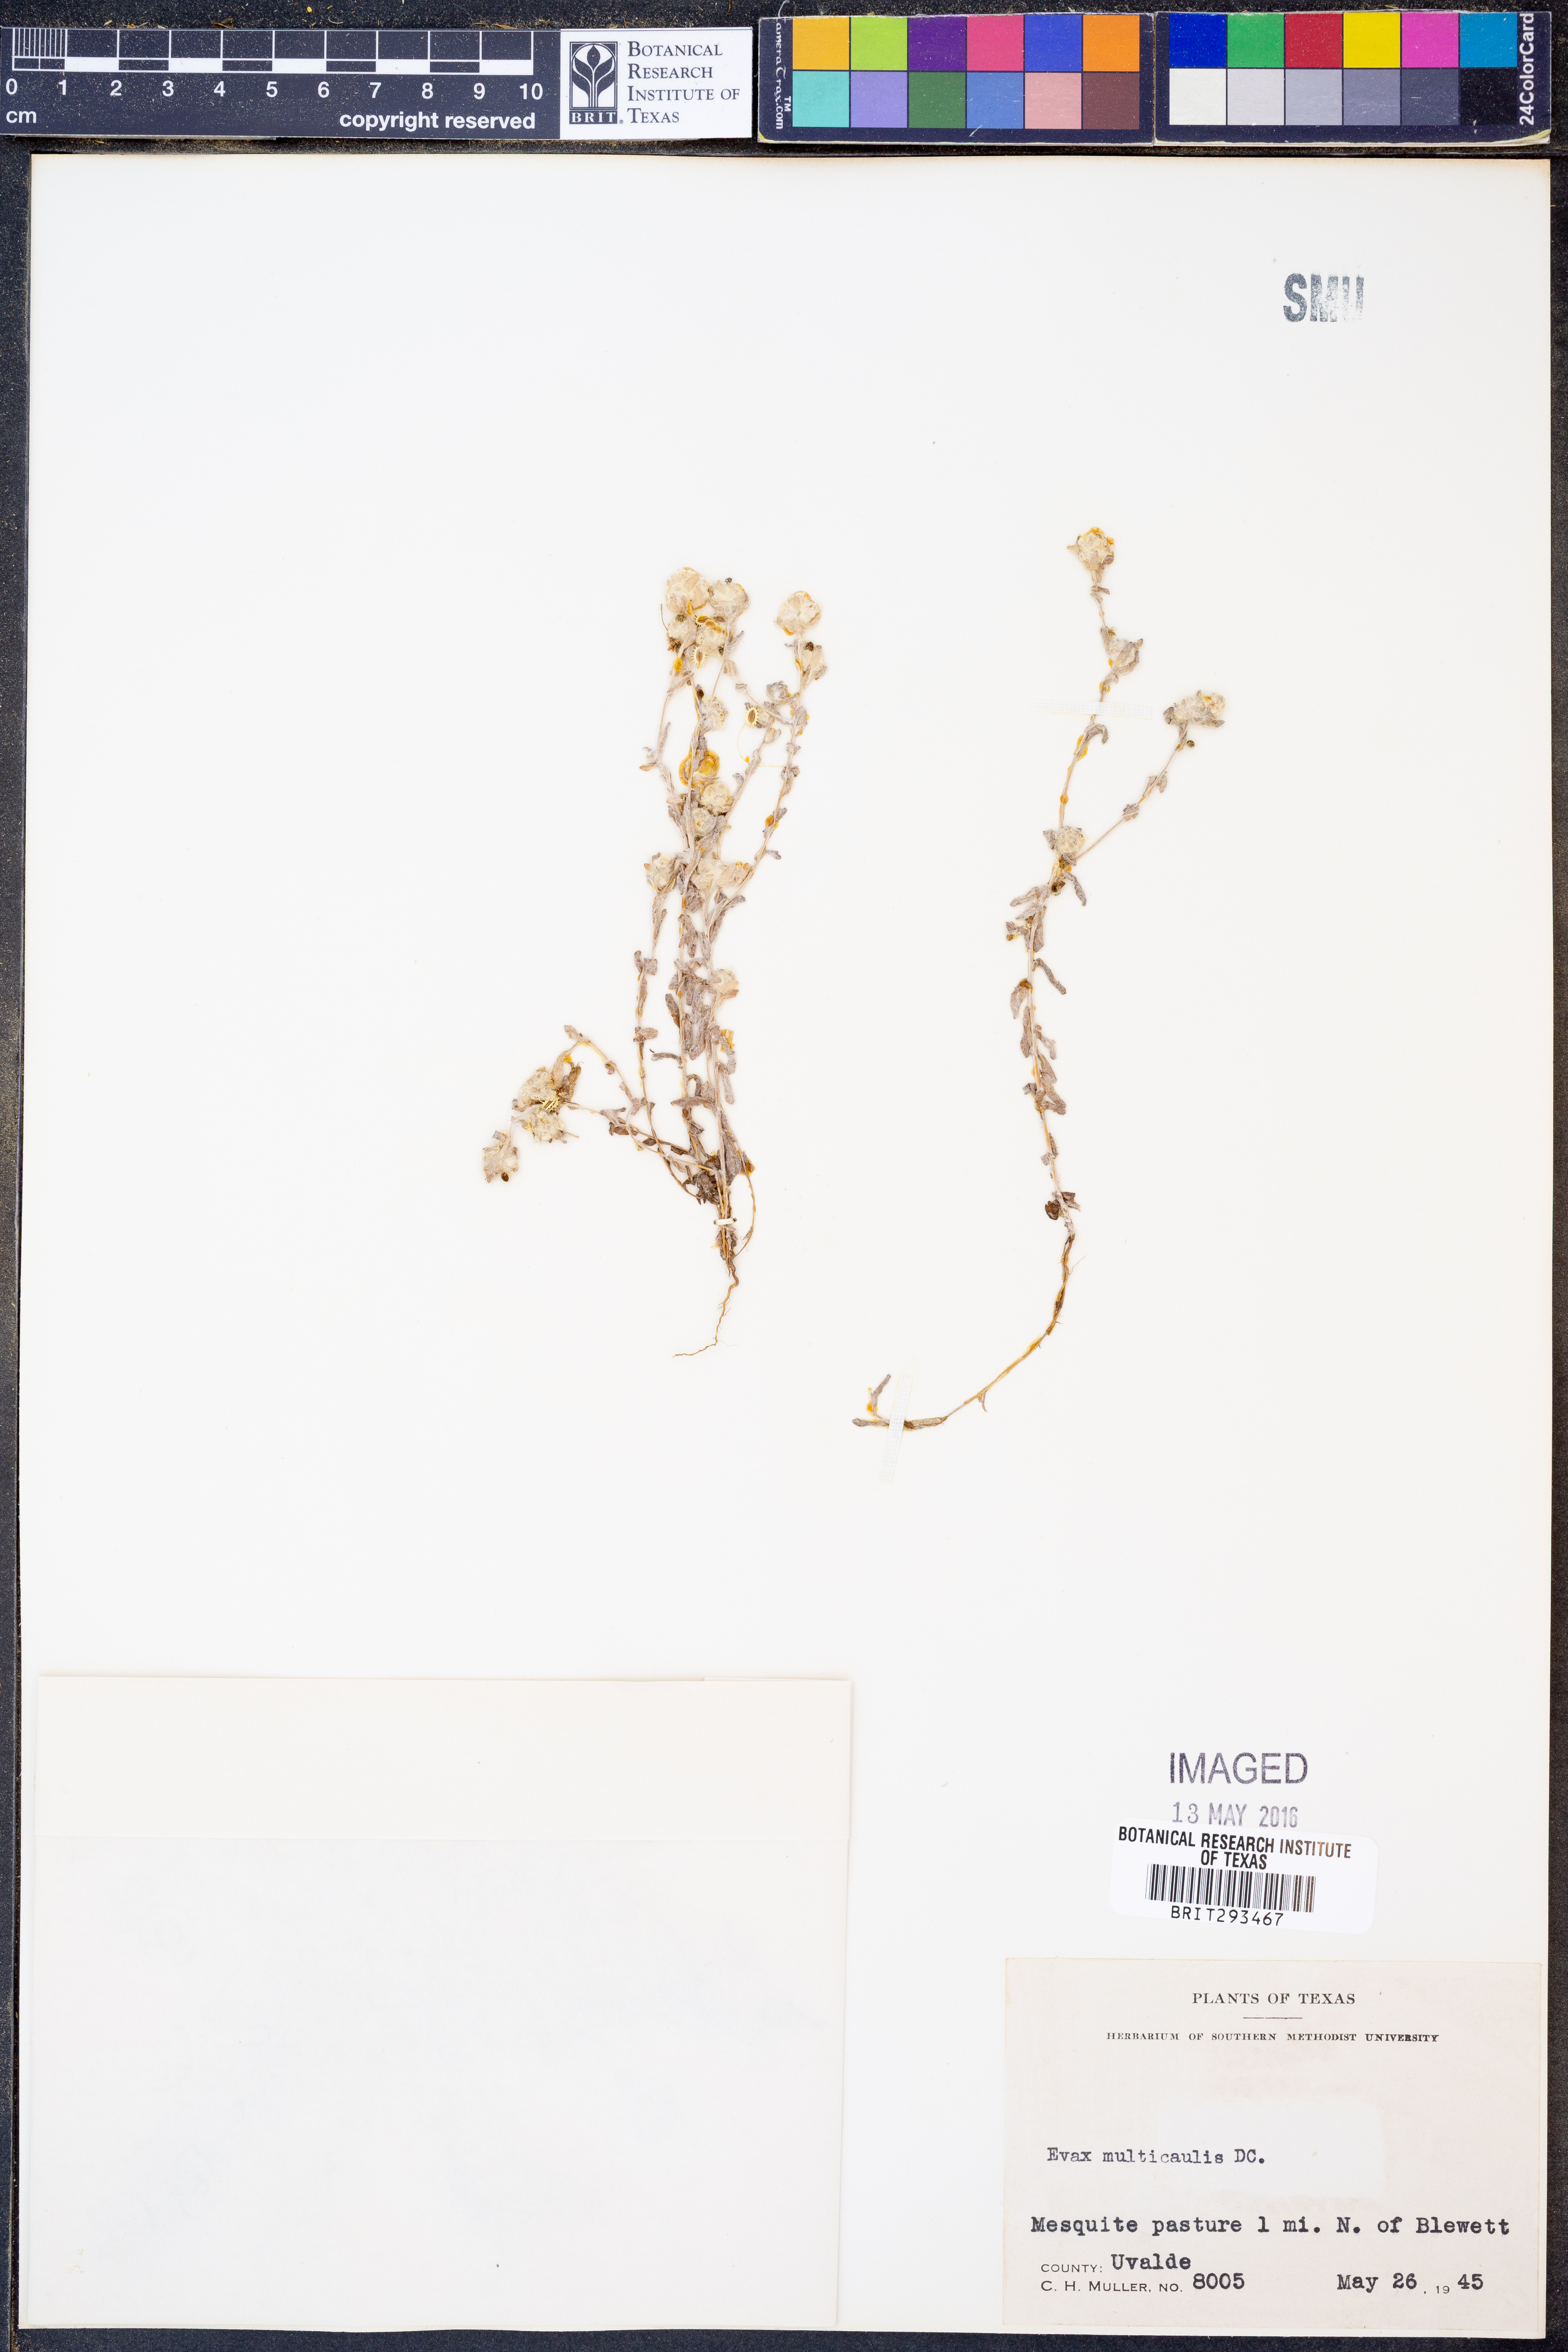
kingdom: Plantae
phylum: Tracheophyta
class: Magnoliopsida
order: Asterales
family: Asteraceae
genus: Diaperia
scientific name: Diaperia verna
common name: Many-stem rabbit-tobacco
